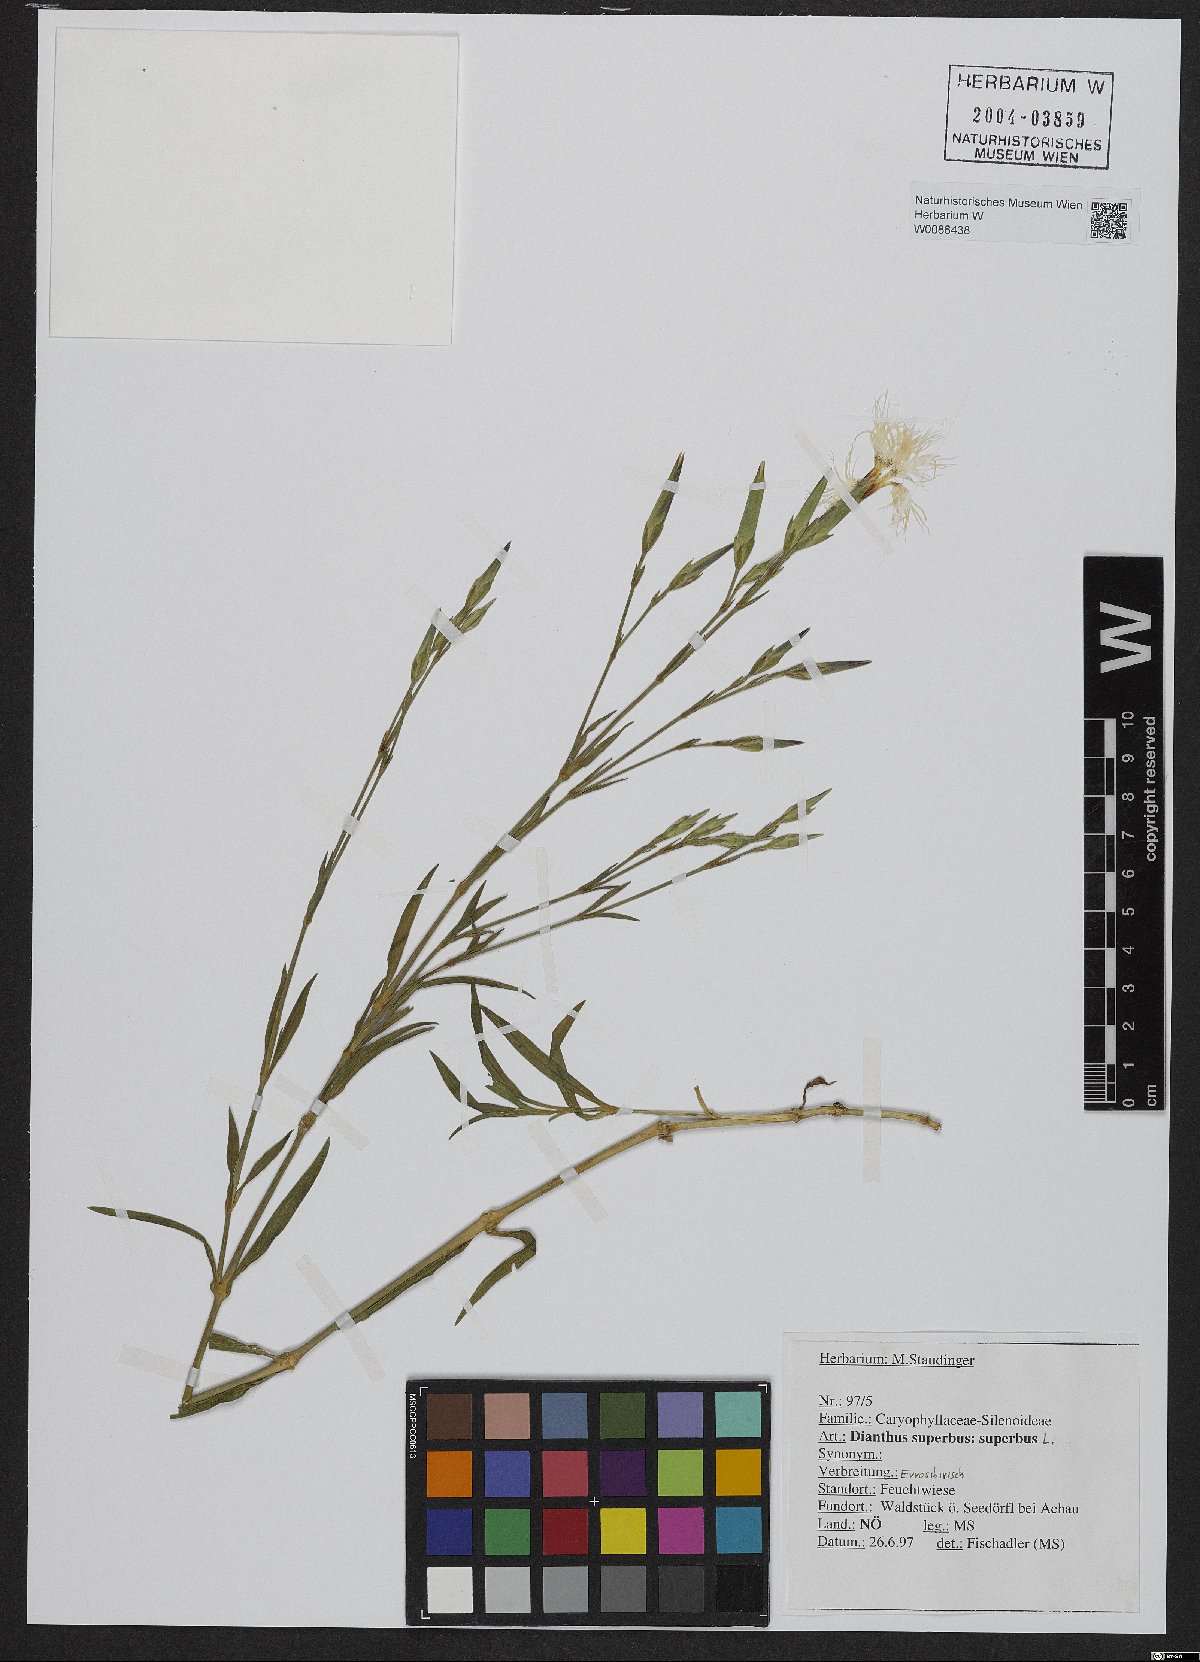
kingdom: Plantae
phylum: Tracheophyta
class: Magnoliopsida
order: Caryophyllales
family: Caryophyllaceae
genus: Dianthus
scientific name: Dianthus superbus
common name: Fringed pink
